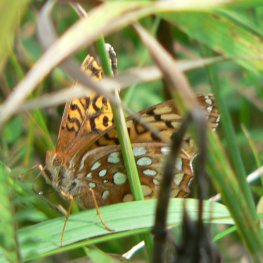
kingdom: Animalia
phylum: Arthropoda
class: Insecta
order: Lepidoptera
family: Nymphalidae
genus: Speyeria
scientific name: Speyeria cybele
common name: Great Spangled Fritillary
